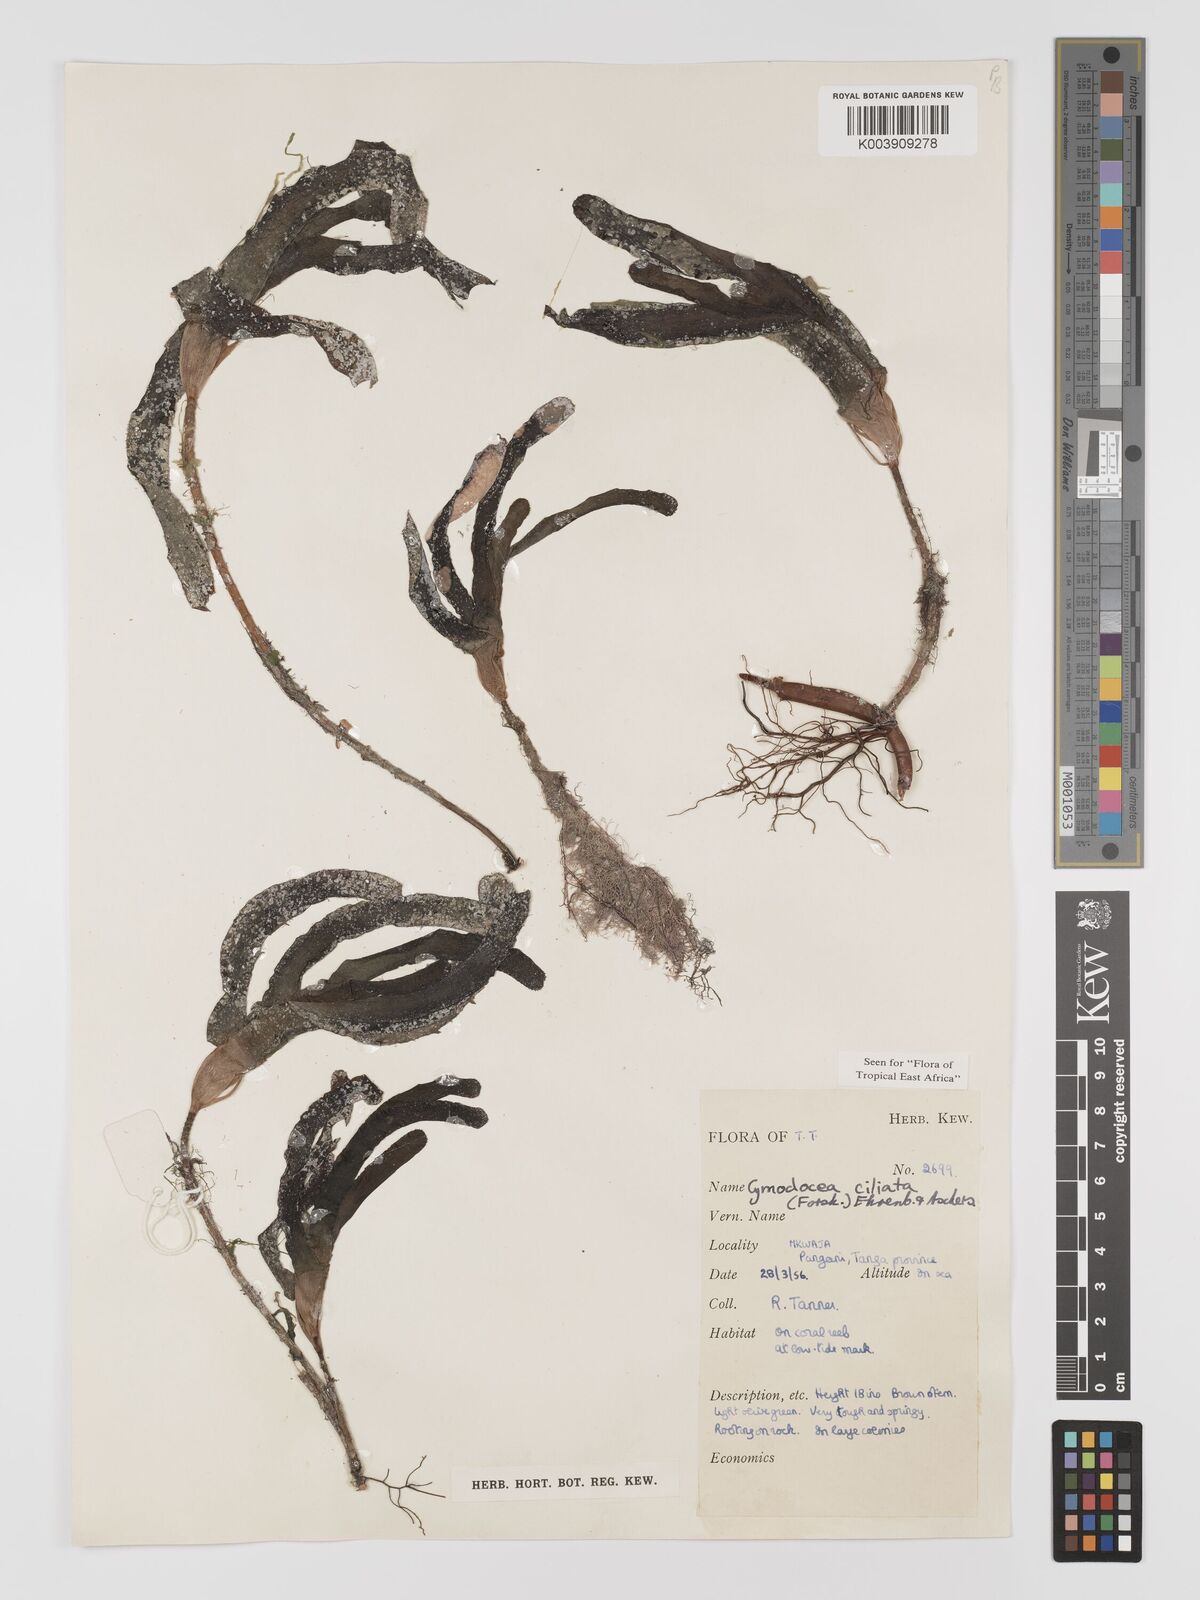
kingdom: Plantae
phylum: Tracheophyta
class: Liliopsida
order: Alismatales
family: Cymodoceaceae
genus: Thalassodendron
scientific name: Thalassodendron ciliatum
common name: Species code: tc
